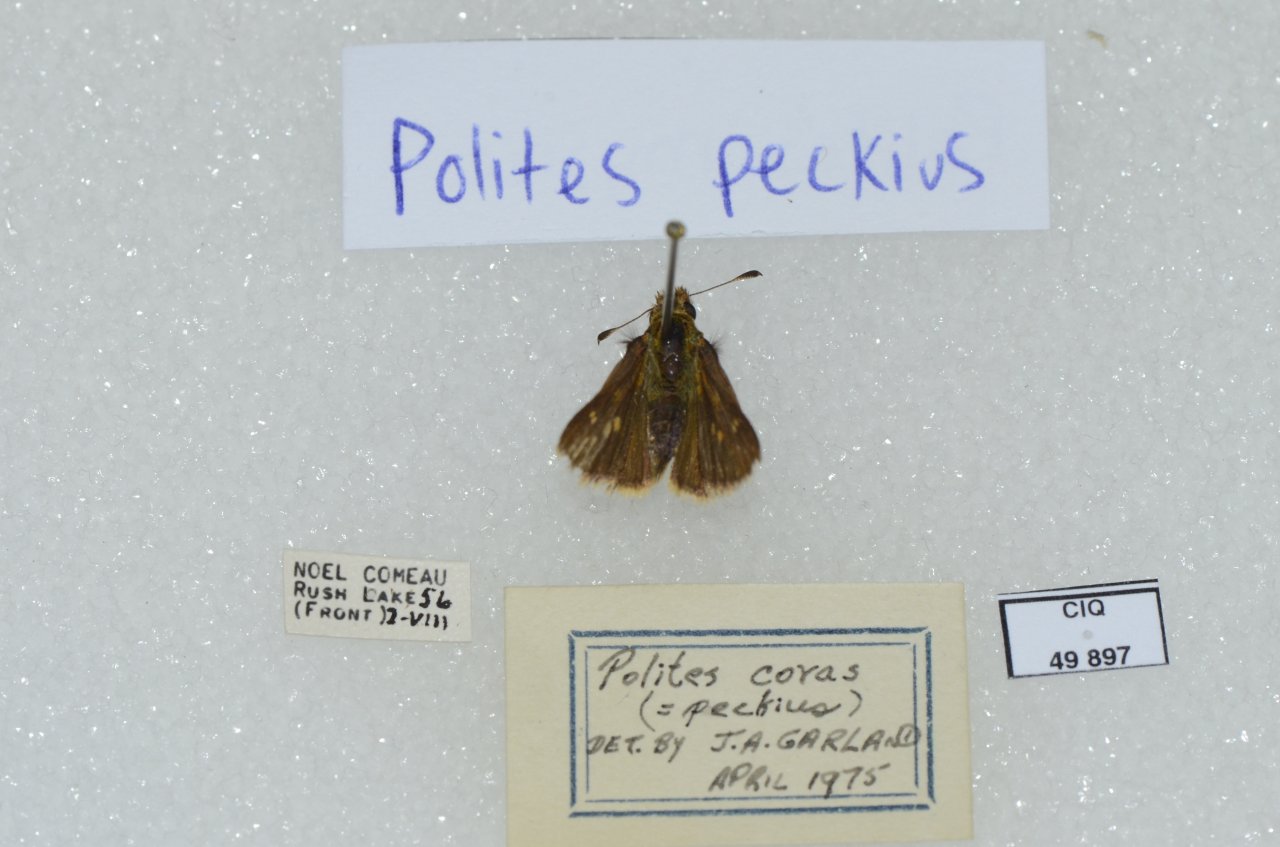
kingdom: Animalia
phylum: Arthropoda
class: Insecta
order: Lepidoptera
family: Hesperiidae
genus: Polites
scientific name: Polites coras
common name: Peck's Skipper
